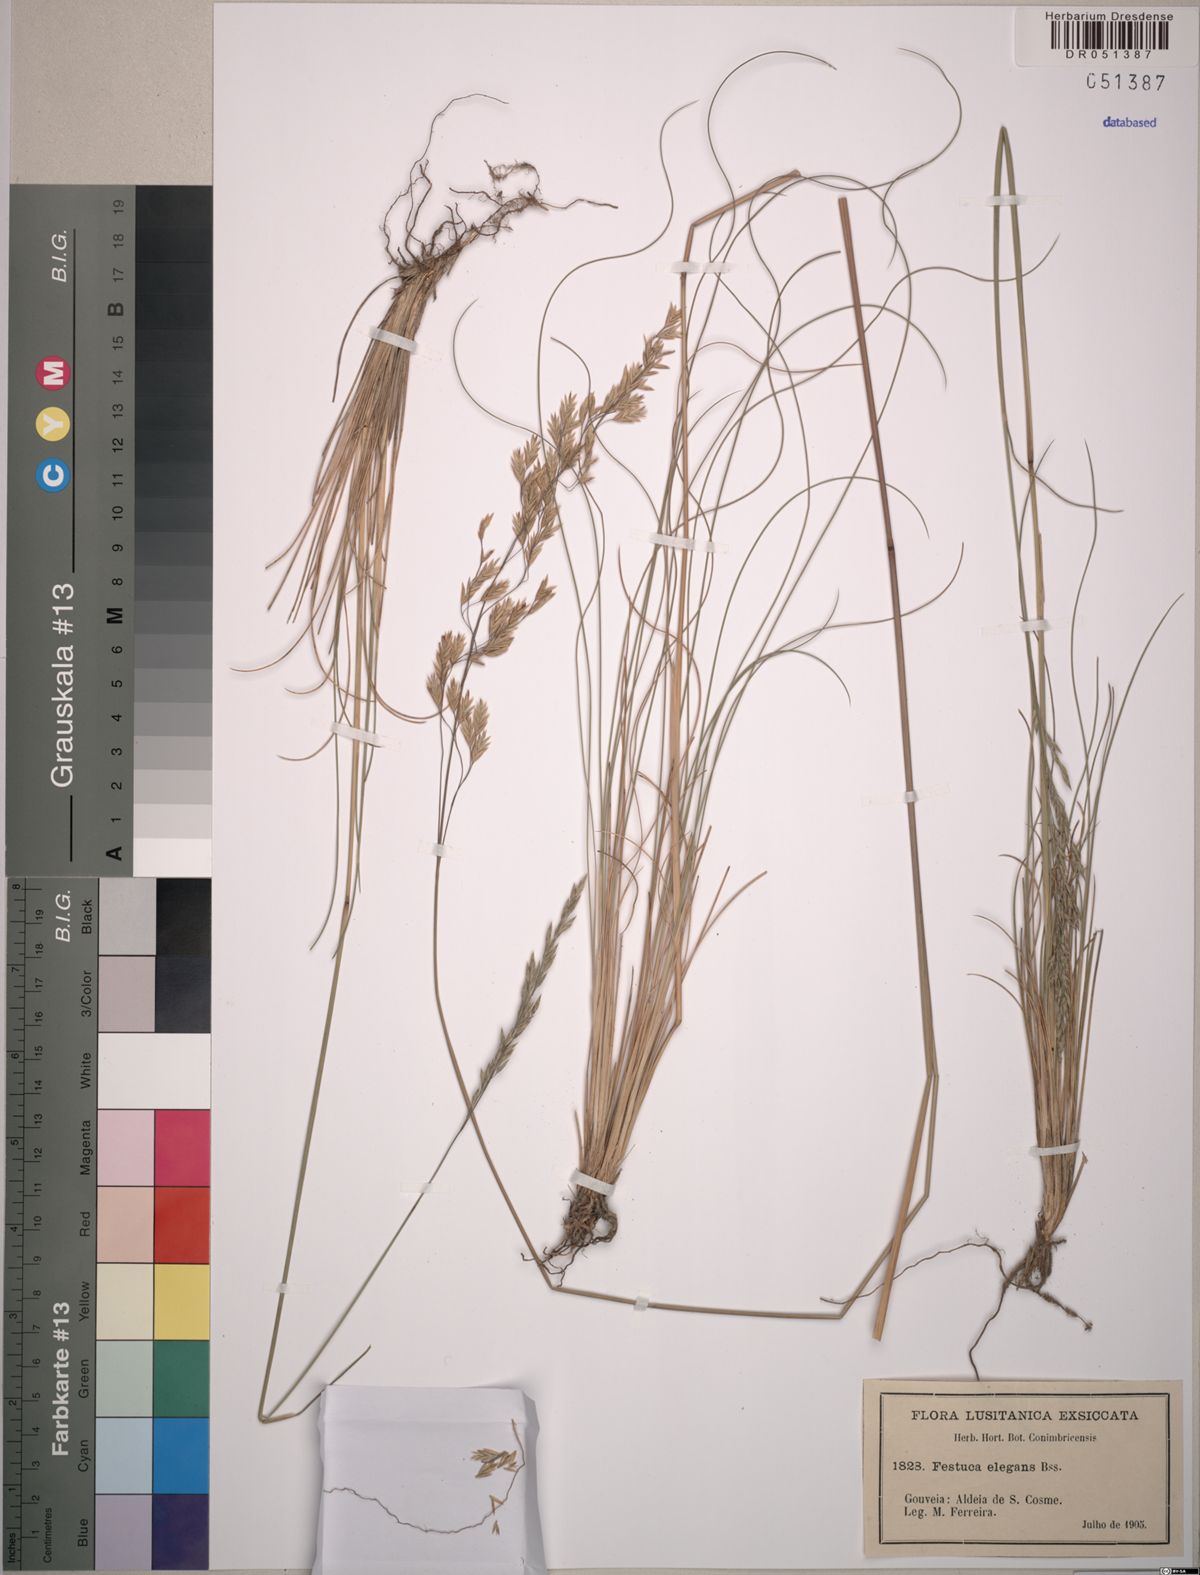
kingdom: Plantae
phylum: Tracheophyta
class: Liliopsida
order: Poales
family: Poaceae
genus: Festuca
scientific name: Festuca elegans
